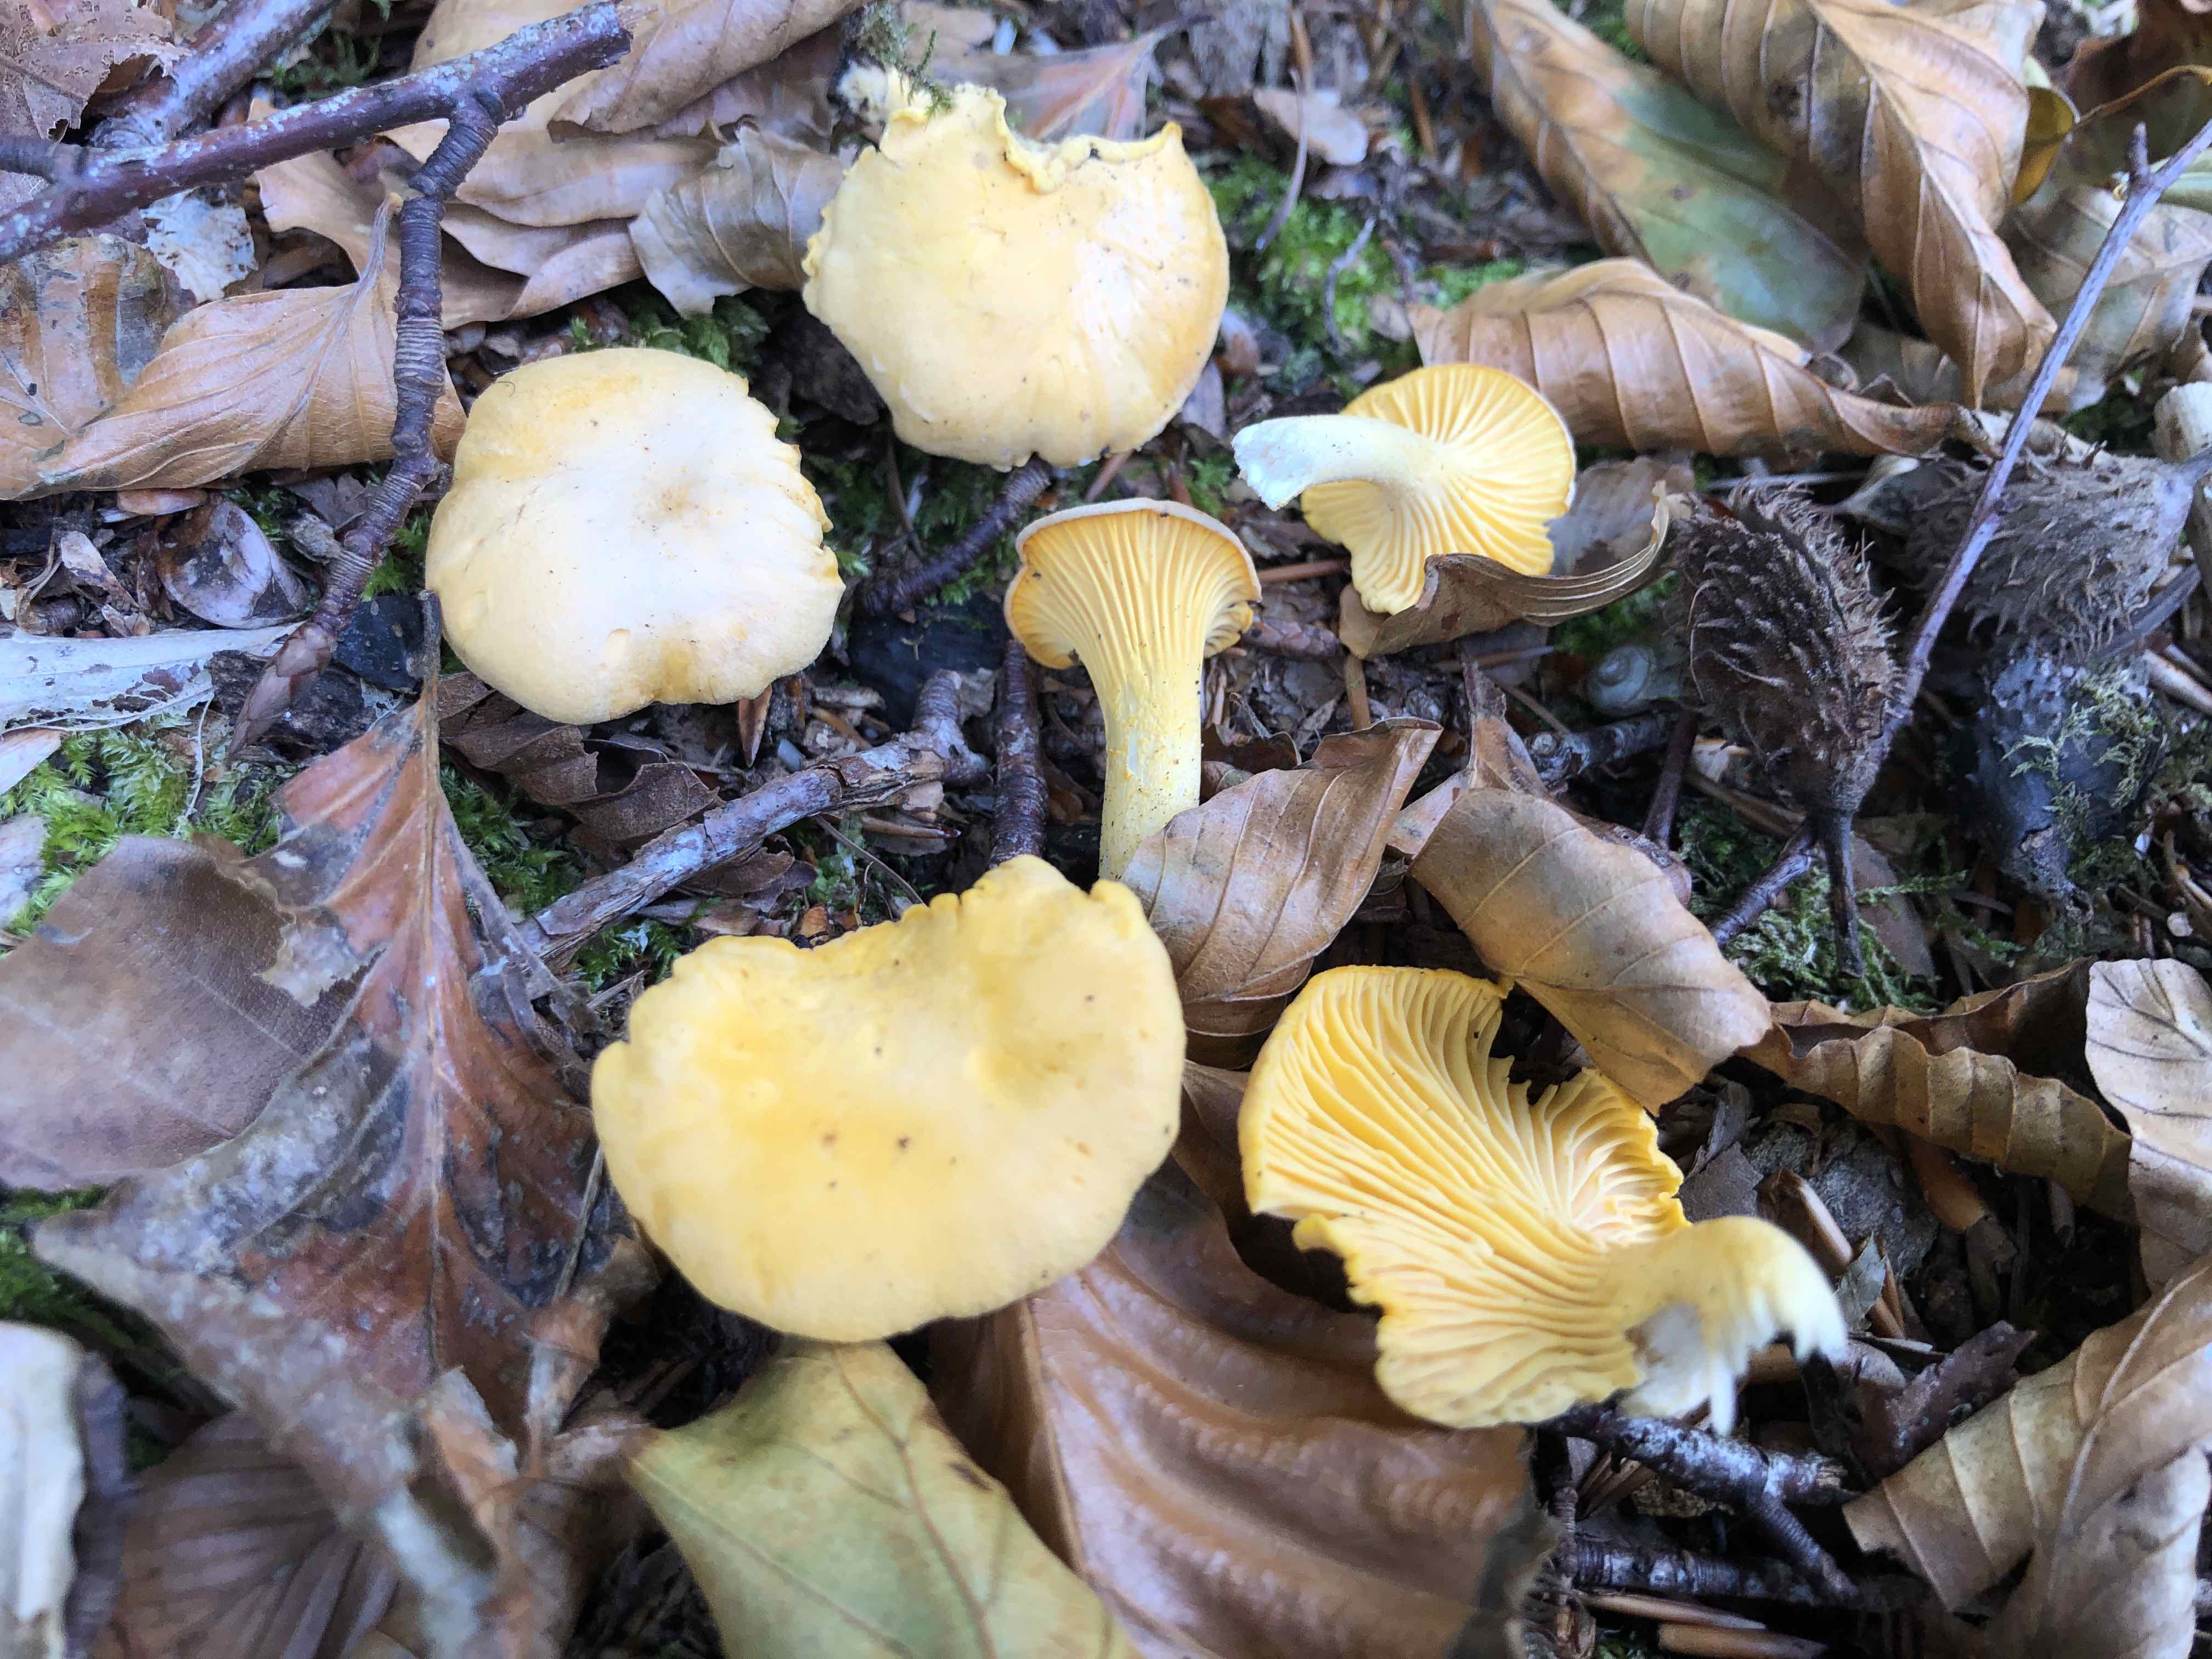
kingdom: Fungi
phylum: Basidiomycota
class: Agaricomycetes
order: Cantharellales
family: Hydnaceae
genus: Cantharellus
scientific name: Cantharellus pallens
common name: bleg kantarel
